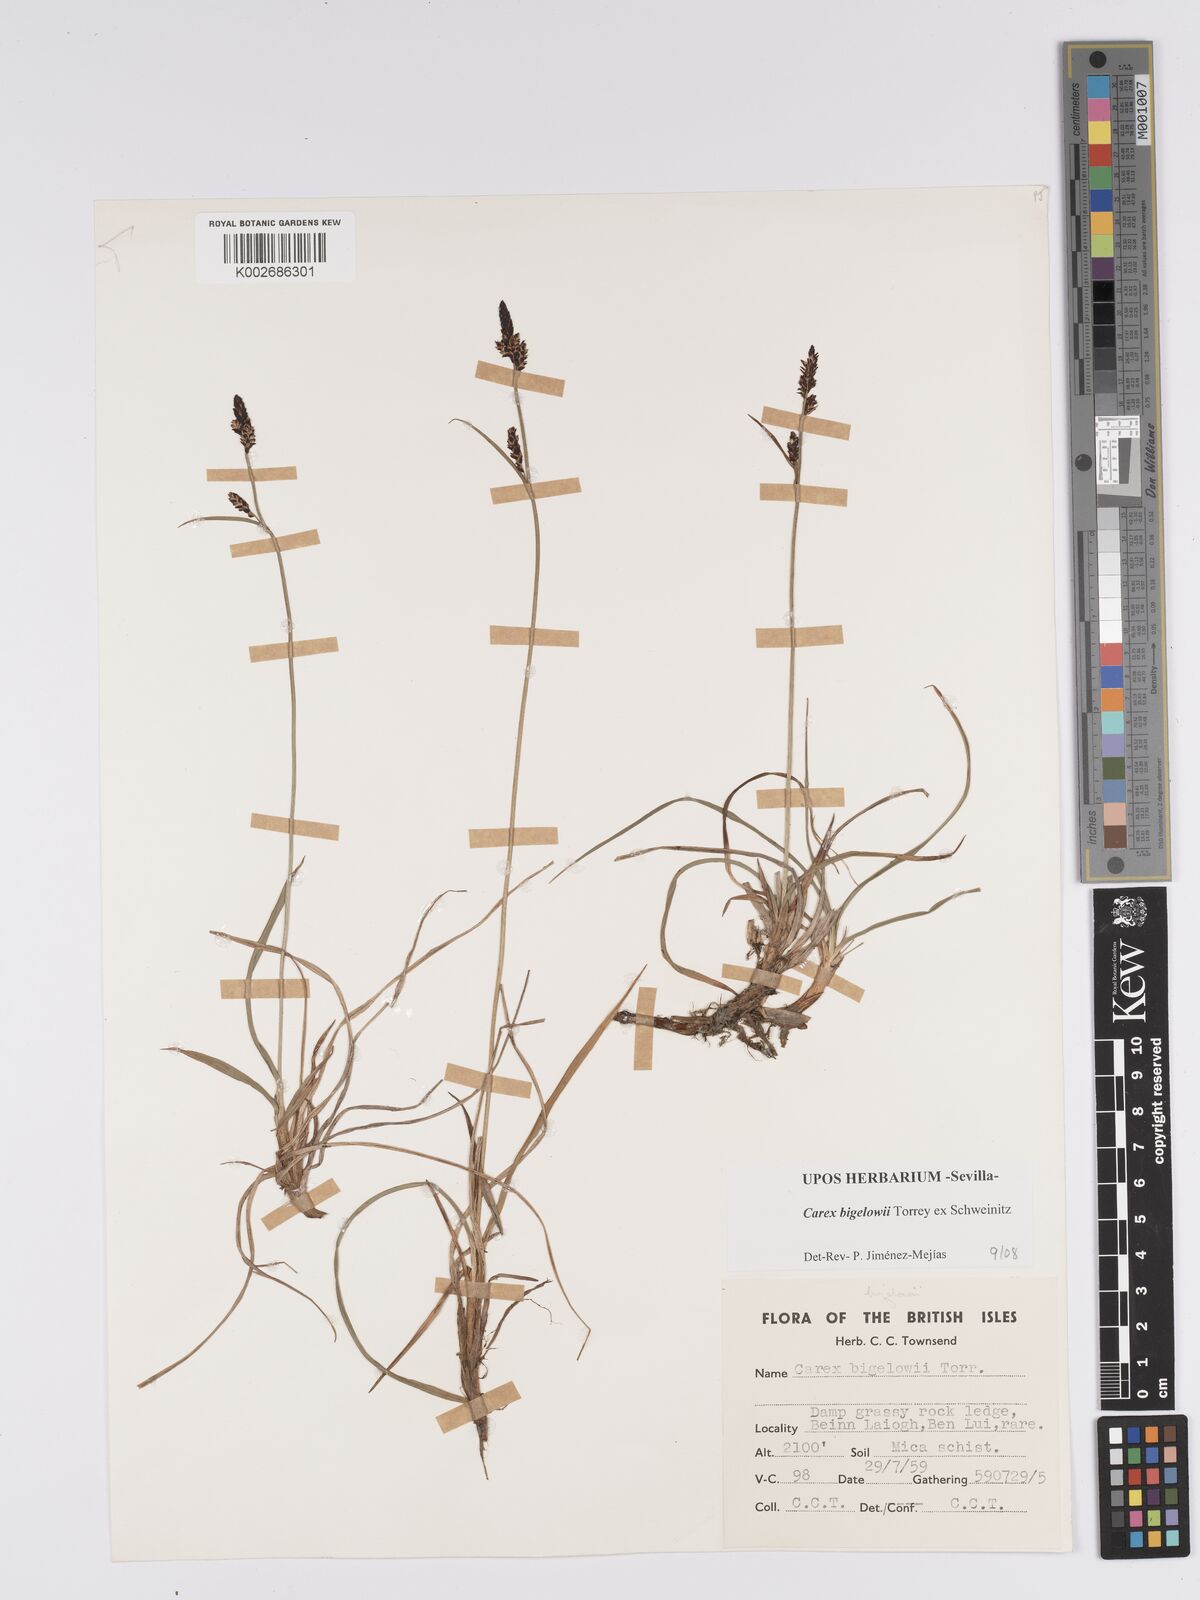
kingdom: Plantae
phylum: Tracheophyta
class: Liliopsida
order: Poales
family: Cyperaceae
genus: Carex
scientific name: Carex bigelowii
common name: Stiff sedge
